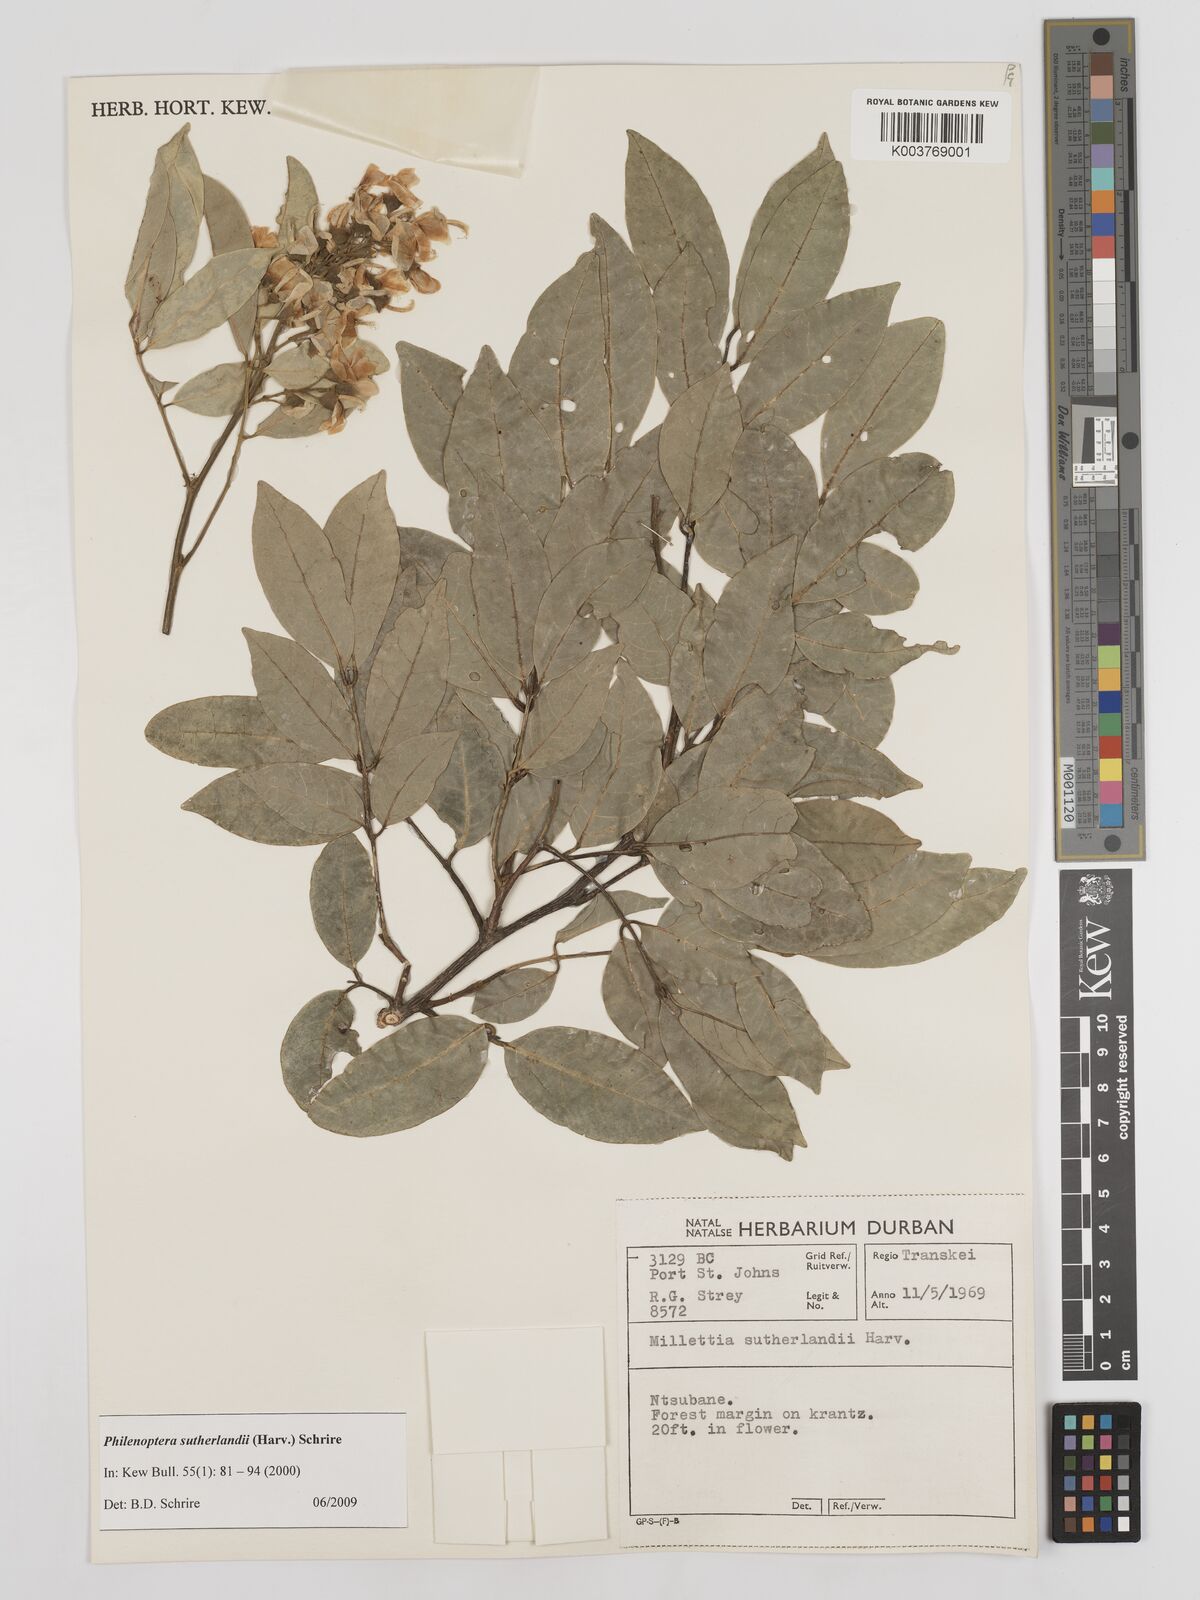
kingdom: Plantae
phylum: Tracheophyta
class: Magnoliopsida
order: Fabales
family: Fabaceae
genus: Philenoptera
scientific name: Philenoptera sutherlandii
